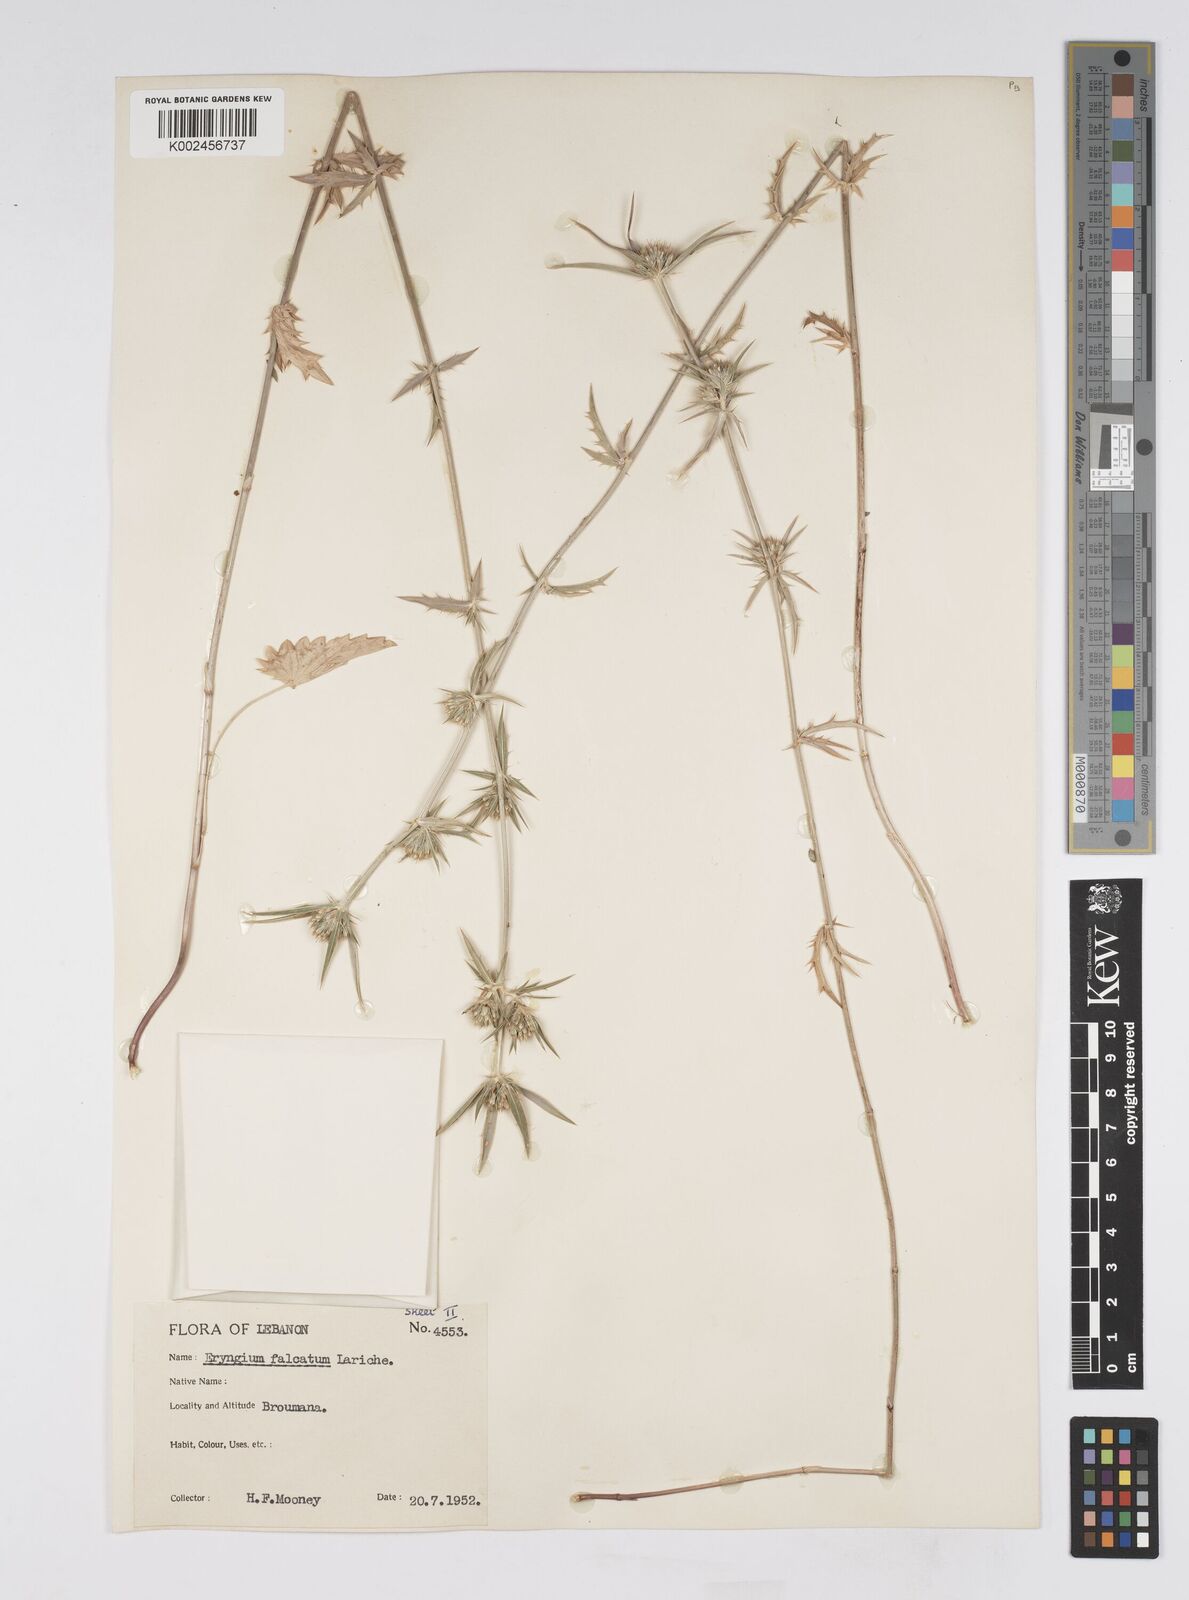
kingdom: Plantae
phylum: Tracheophyta
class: Magnoliopsida
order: Apiales
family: Apiaceae
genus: Eryngium
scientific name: Eryngium falcatum
